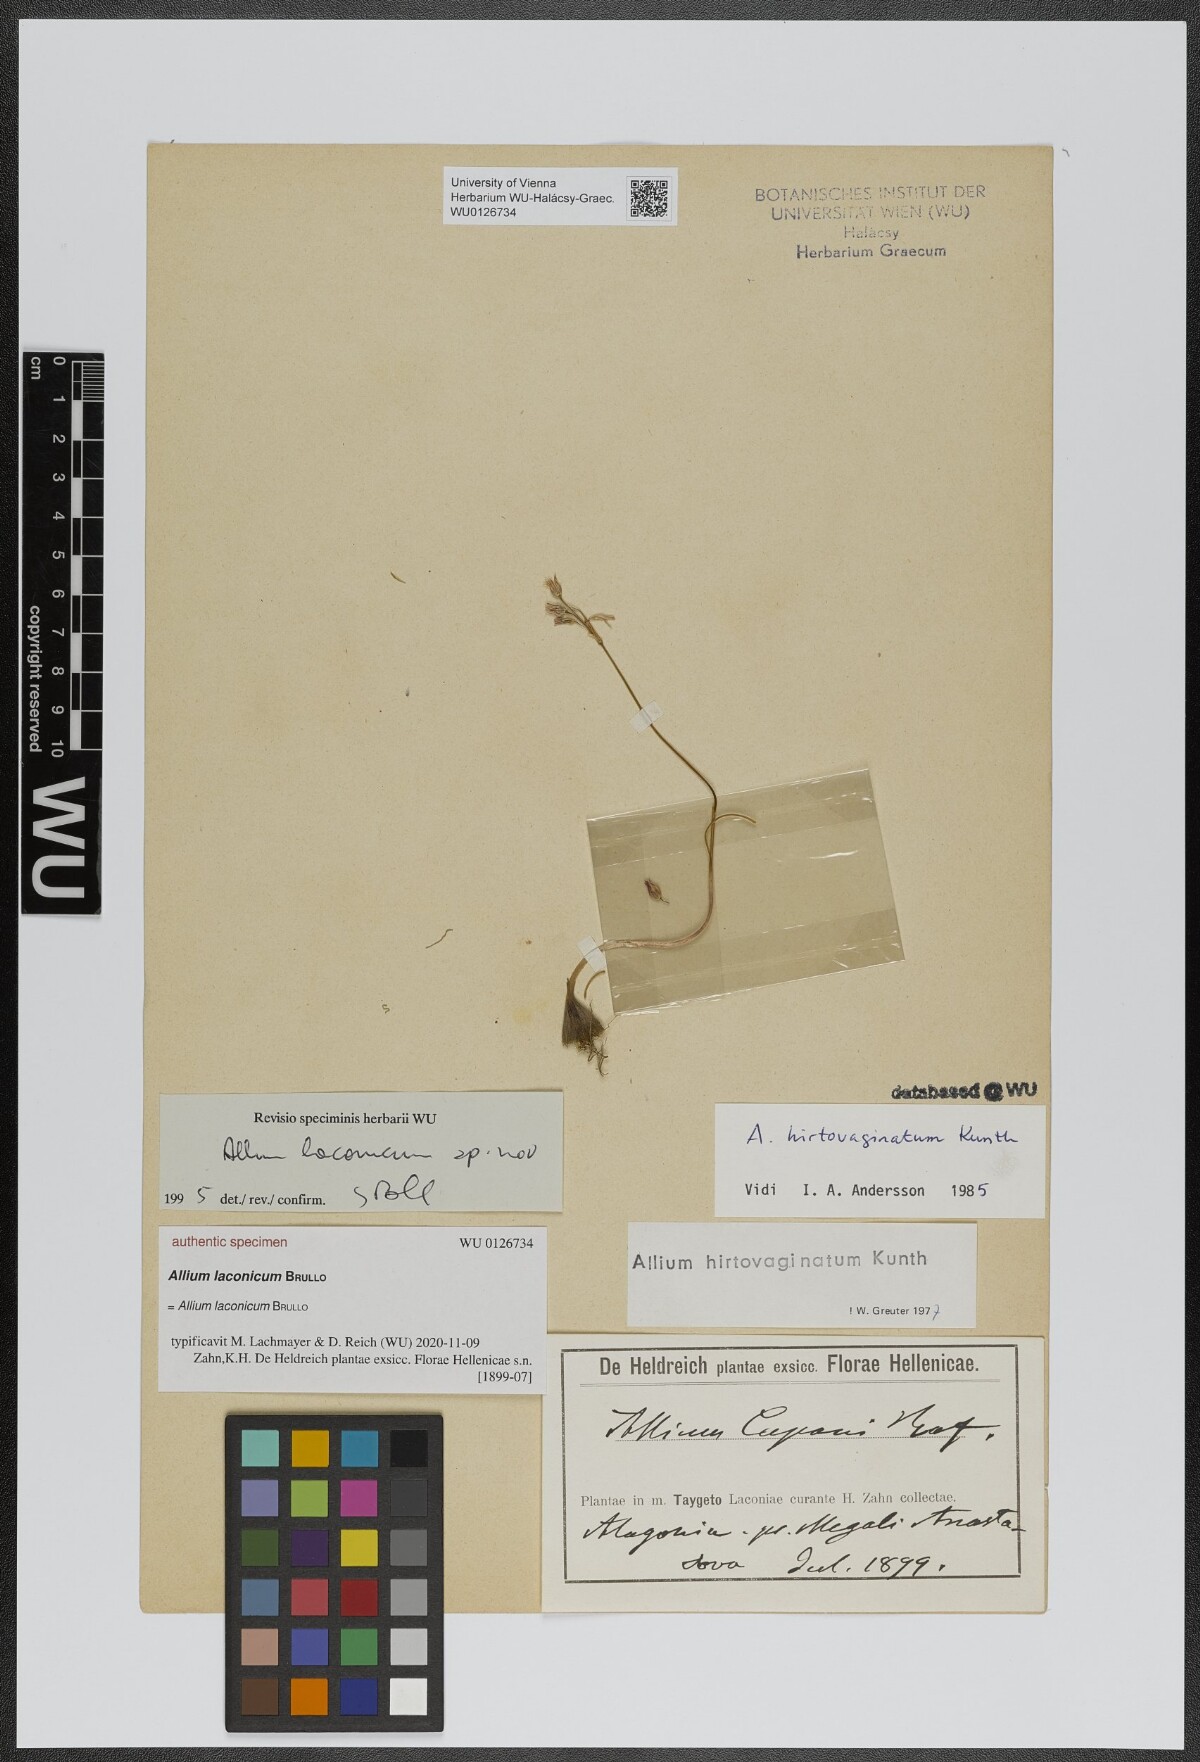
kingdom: Plantae
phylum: Tracheophyta
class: Liliopsida
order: Asparagales
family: Amaryllidaceae
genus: Allium
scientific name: Allium
